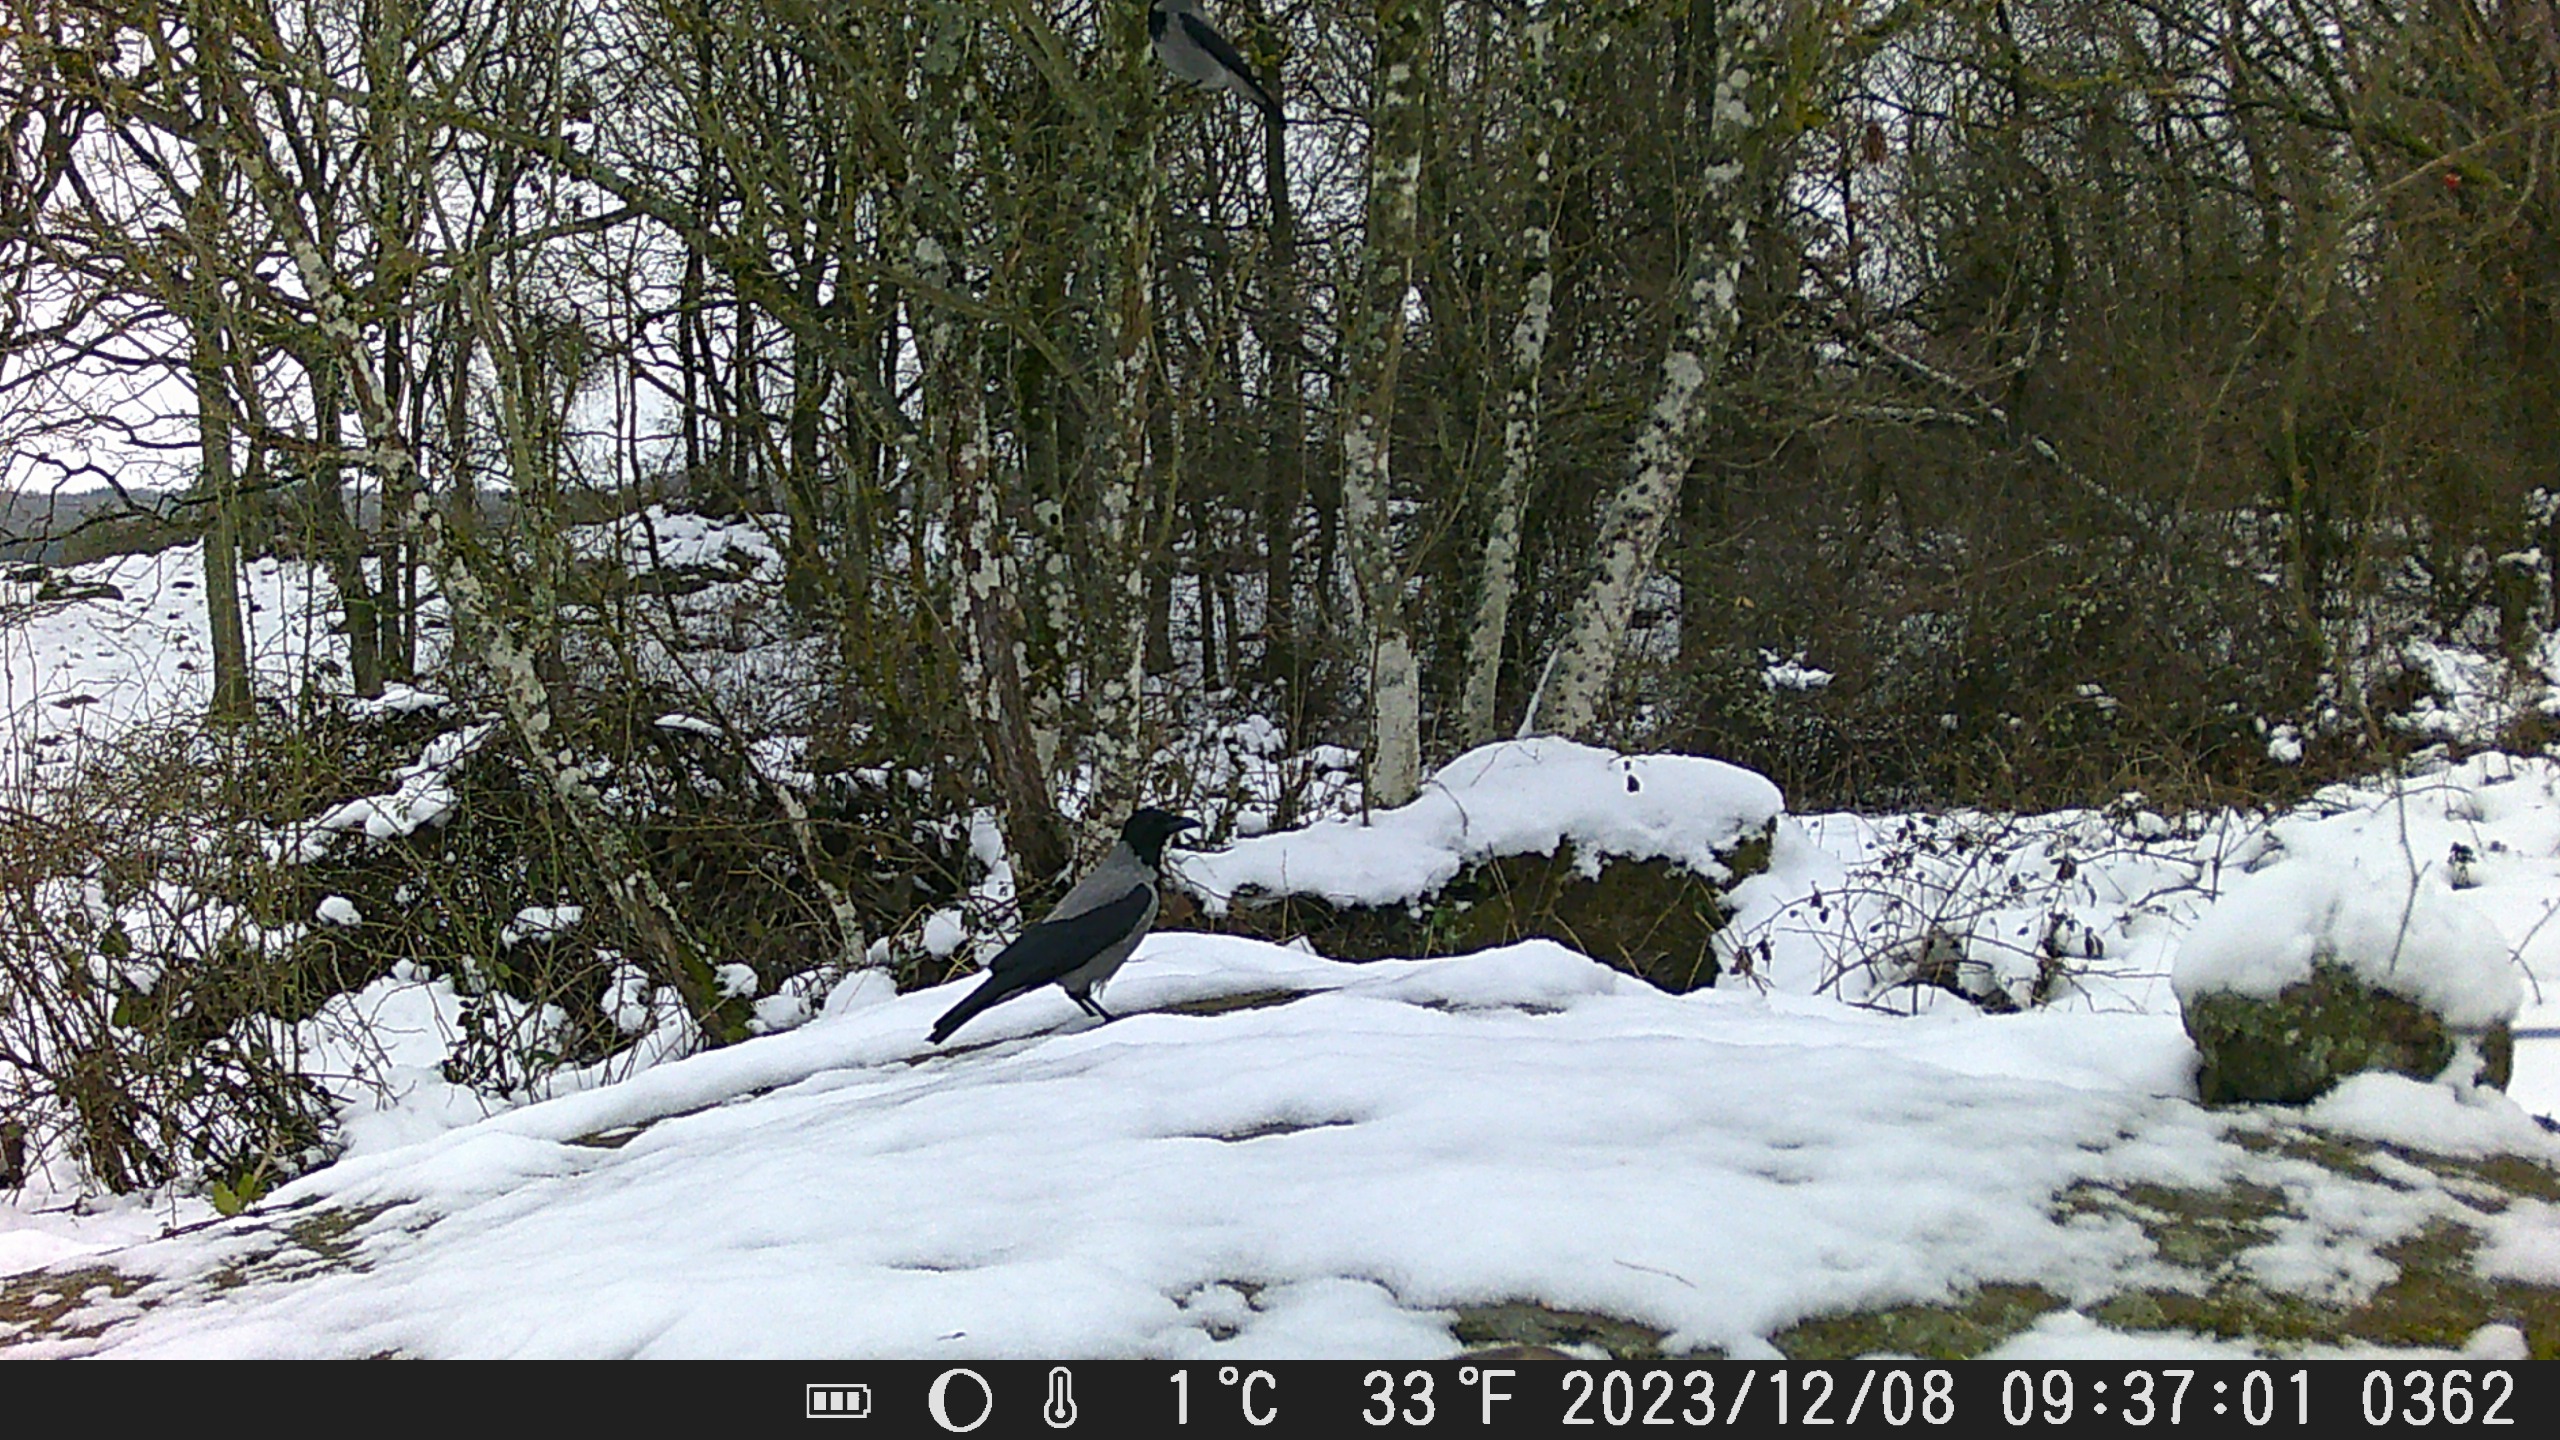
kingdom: Animalia
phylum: Chordata
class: Aves
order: Passeriformes
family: Corvidae
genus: Corvus
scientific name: Corvus cornix
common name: Gråkrage
